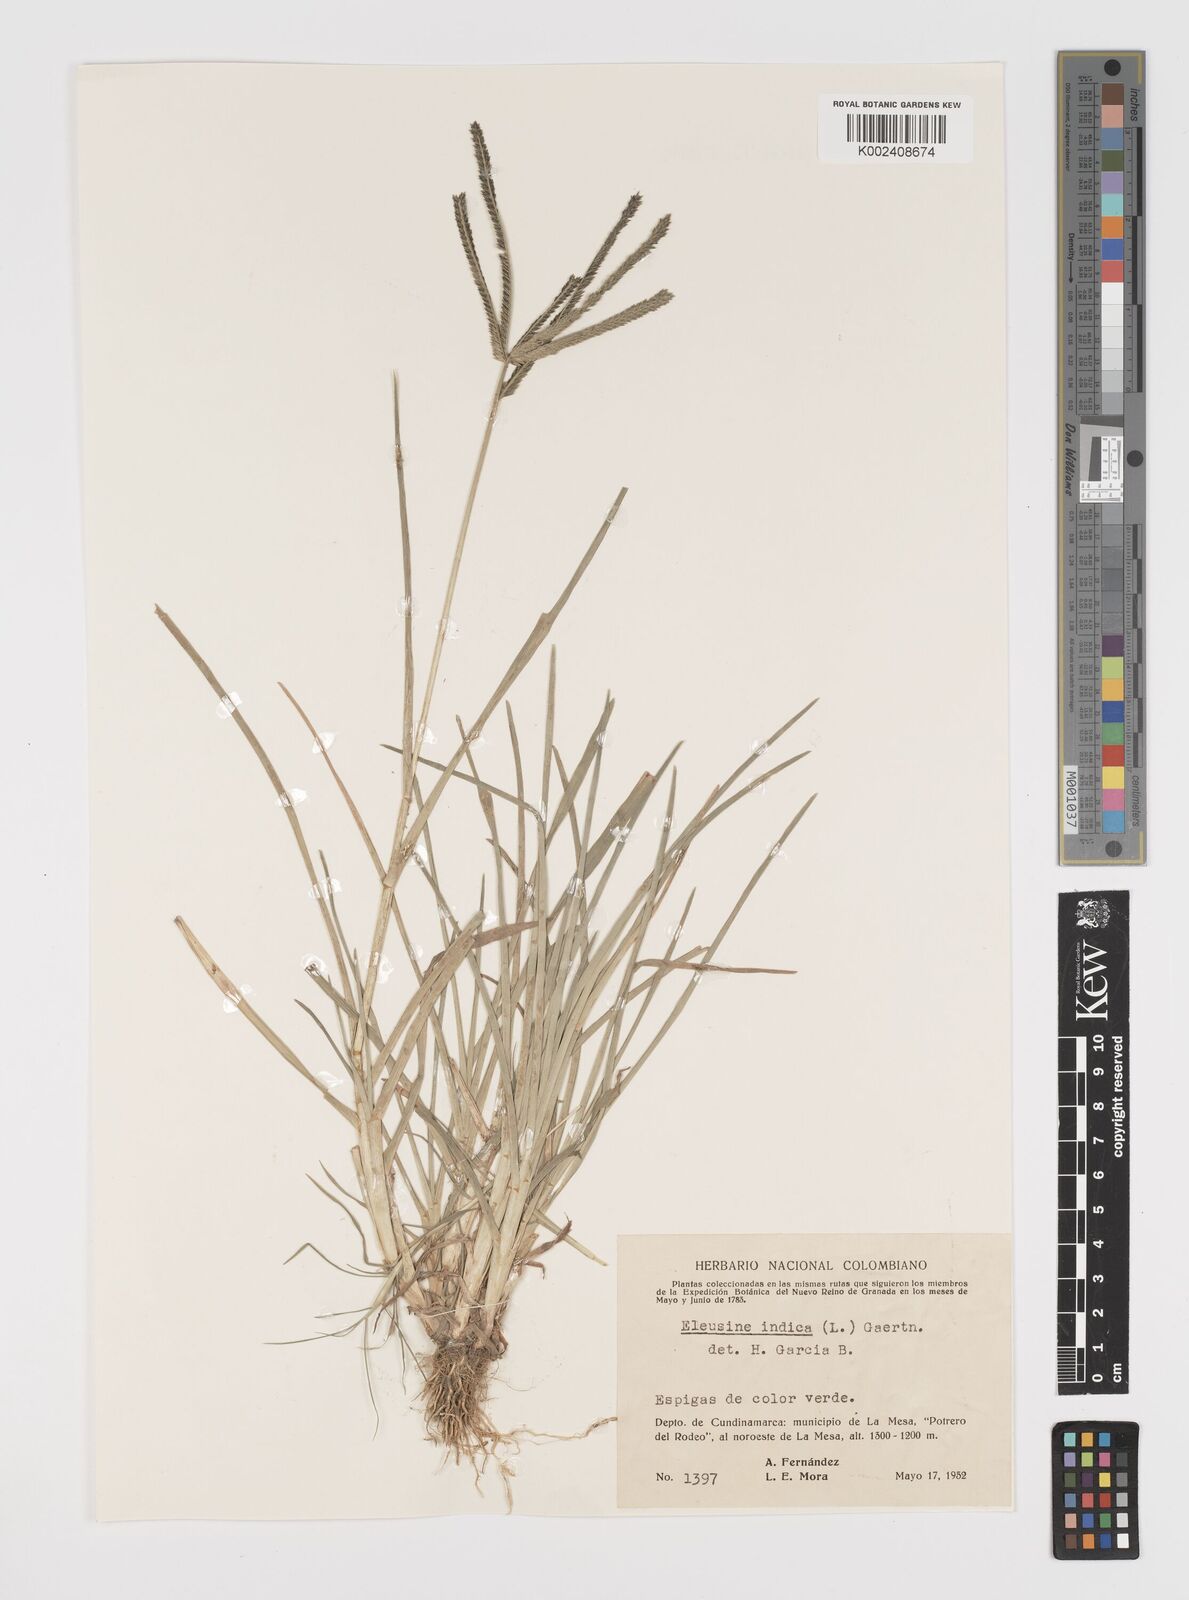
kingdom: Plantae
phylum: Tracheophyta
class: Liliopsida
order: Poales
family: Poaceae
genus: Eleusine
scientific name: Eleusine indica
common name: Yard-grass
